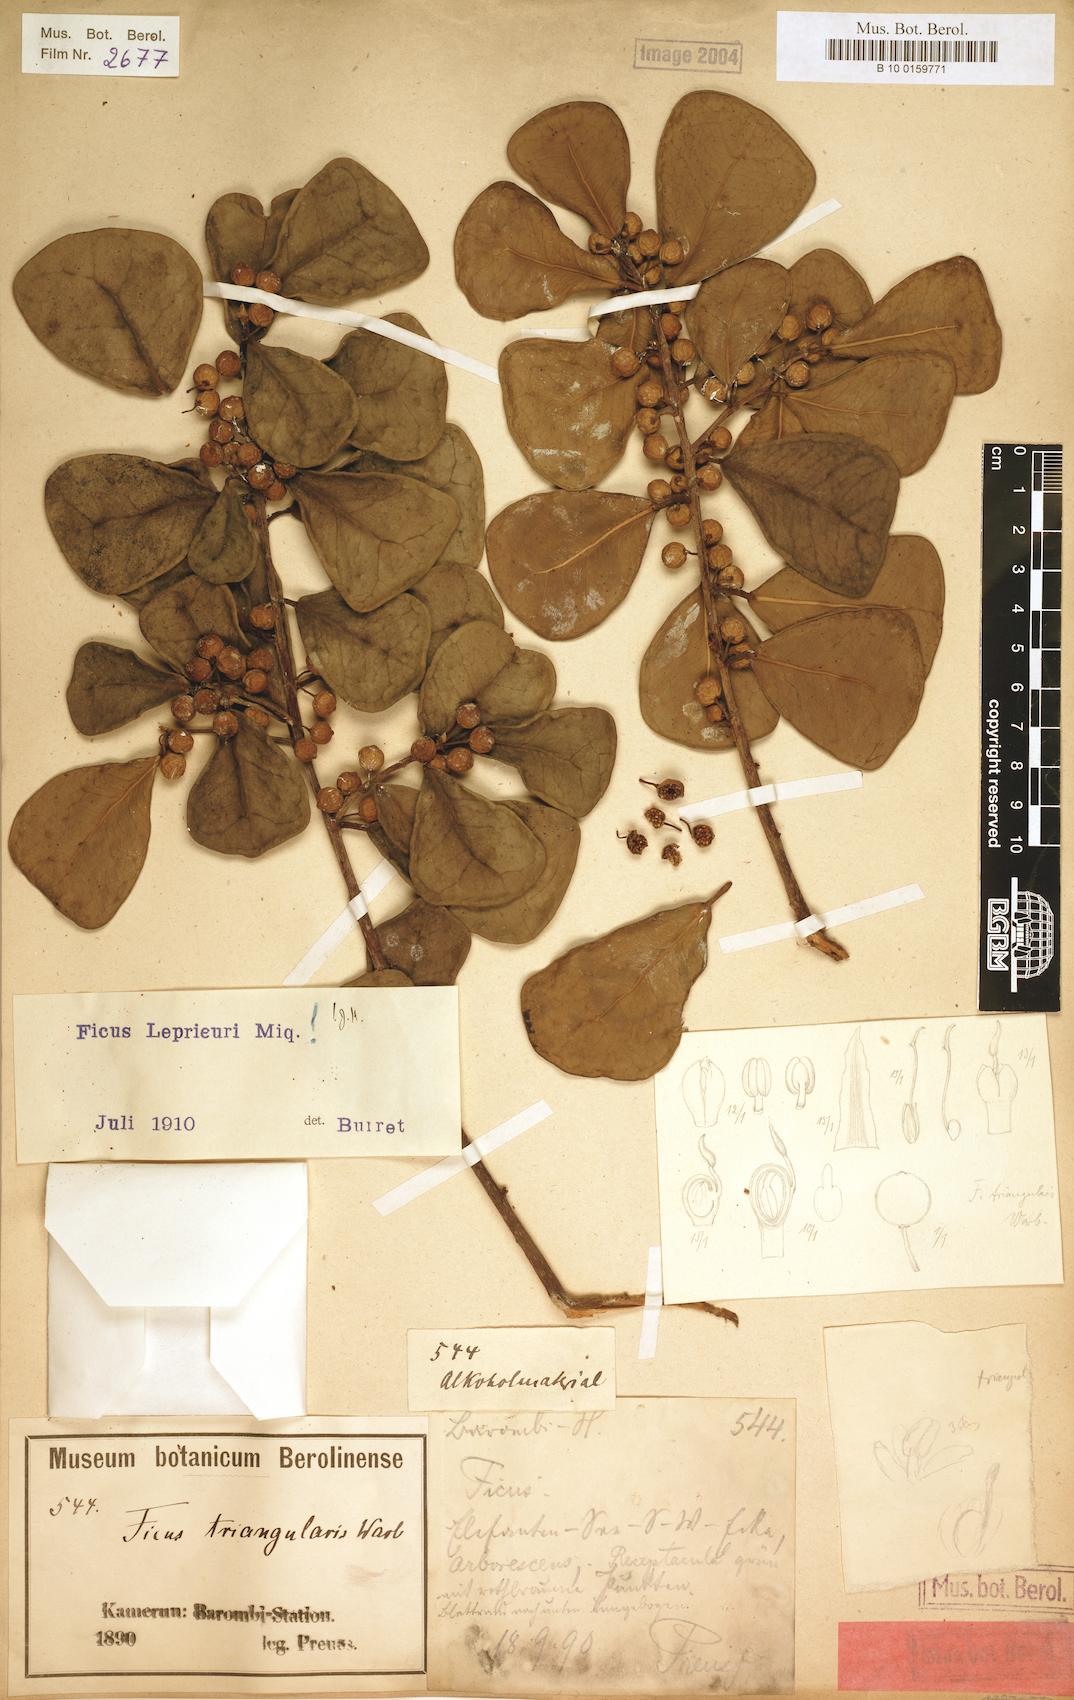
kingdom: Plantae
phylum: Tracheophyta
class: Magnoliopsida
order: Rosales
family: Moraceae
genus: Ficus
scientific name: Ficus natalensis
